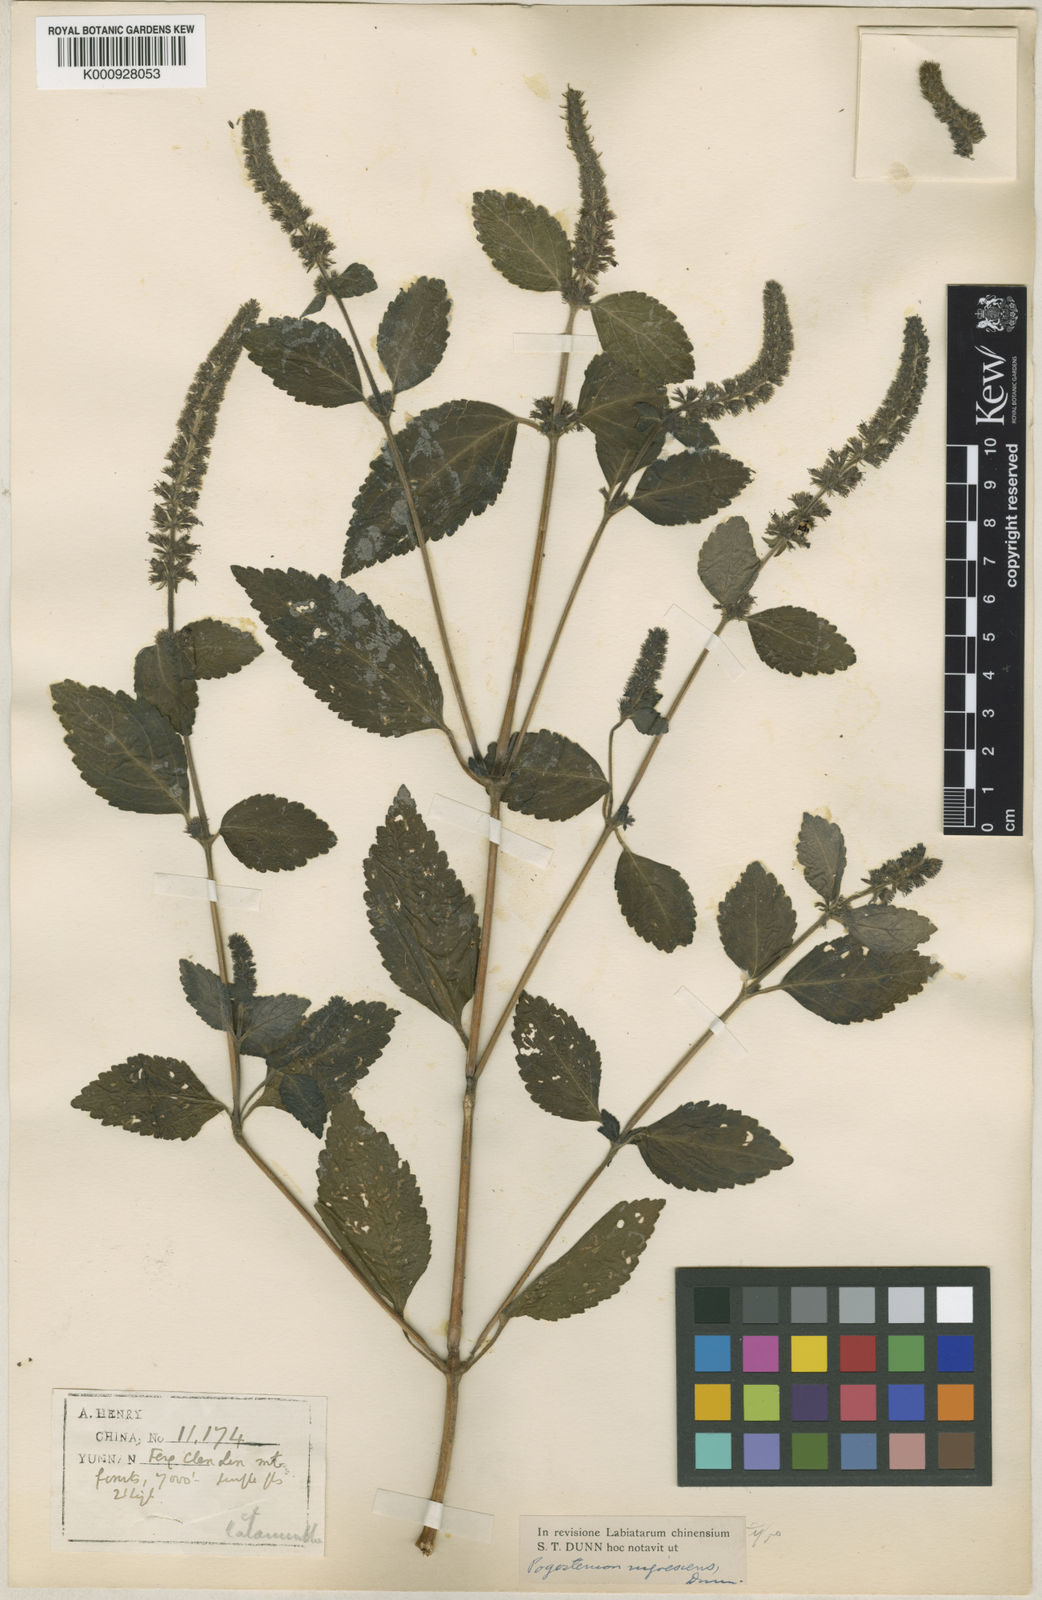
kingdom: Plantae
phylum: Tracheophyta
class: Magnoliopsida
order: Lamiales
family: Lamiaceae
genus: Pogostemon
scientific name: Pogostemon brachystachyus
